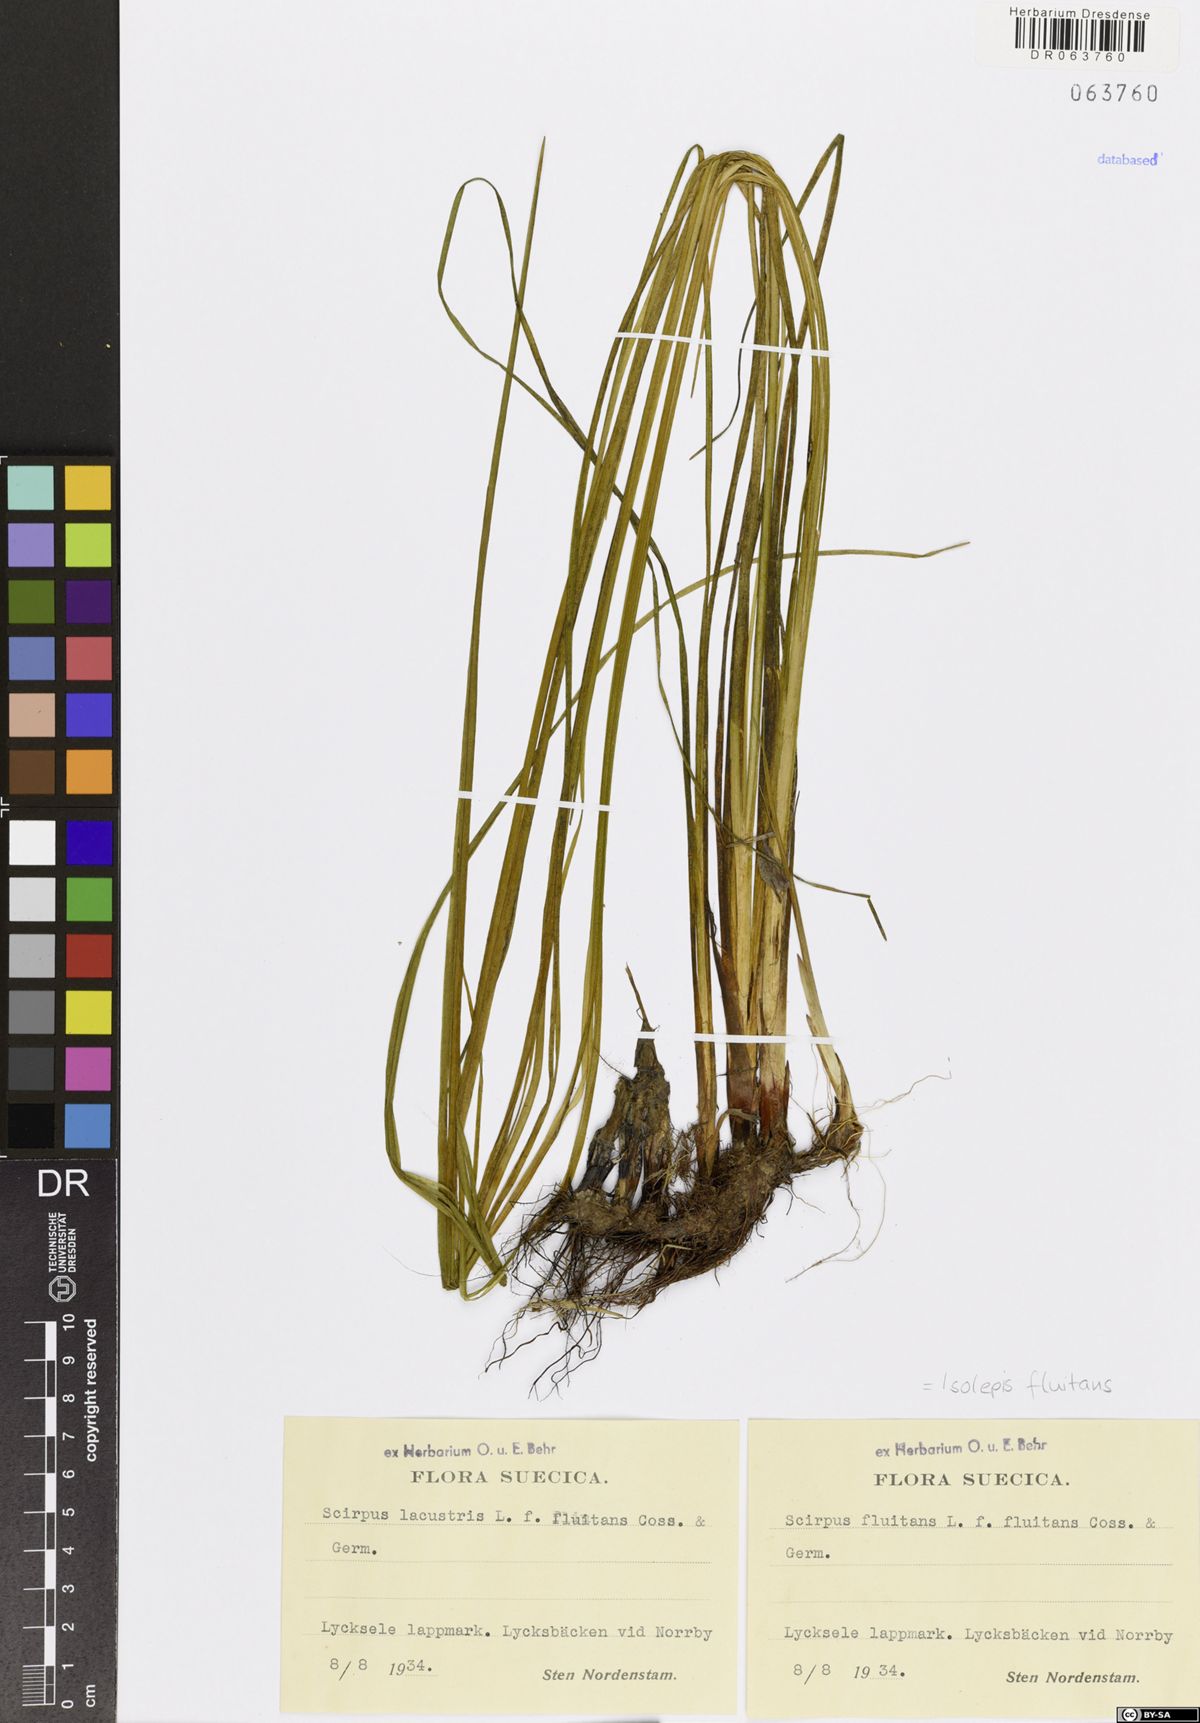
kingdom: Plantae
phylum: Tracheophyta
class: Liliopsida
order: Poales
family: Cyperaceae
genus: Isolepis
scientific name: Isolepis fluitans
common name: Floating club-rush
